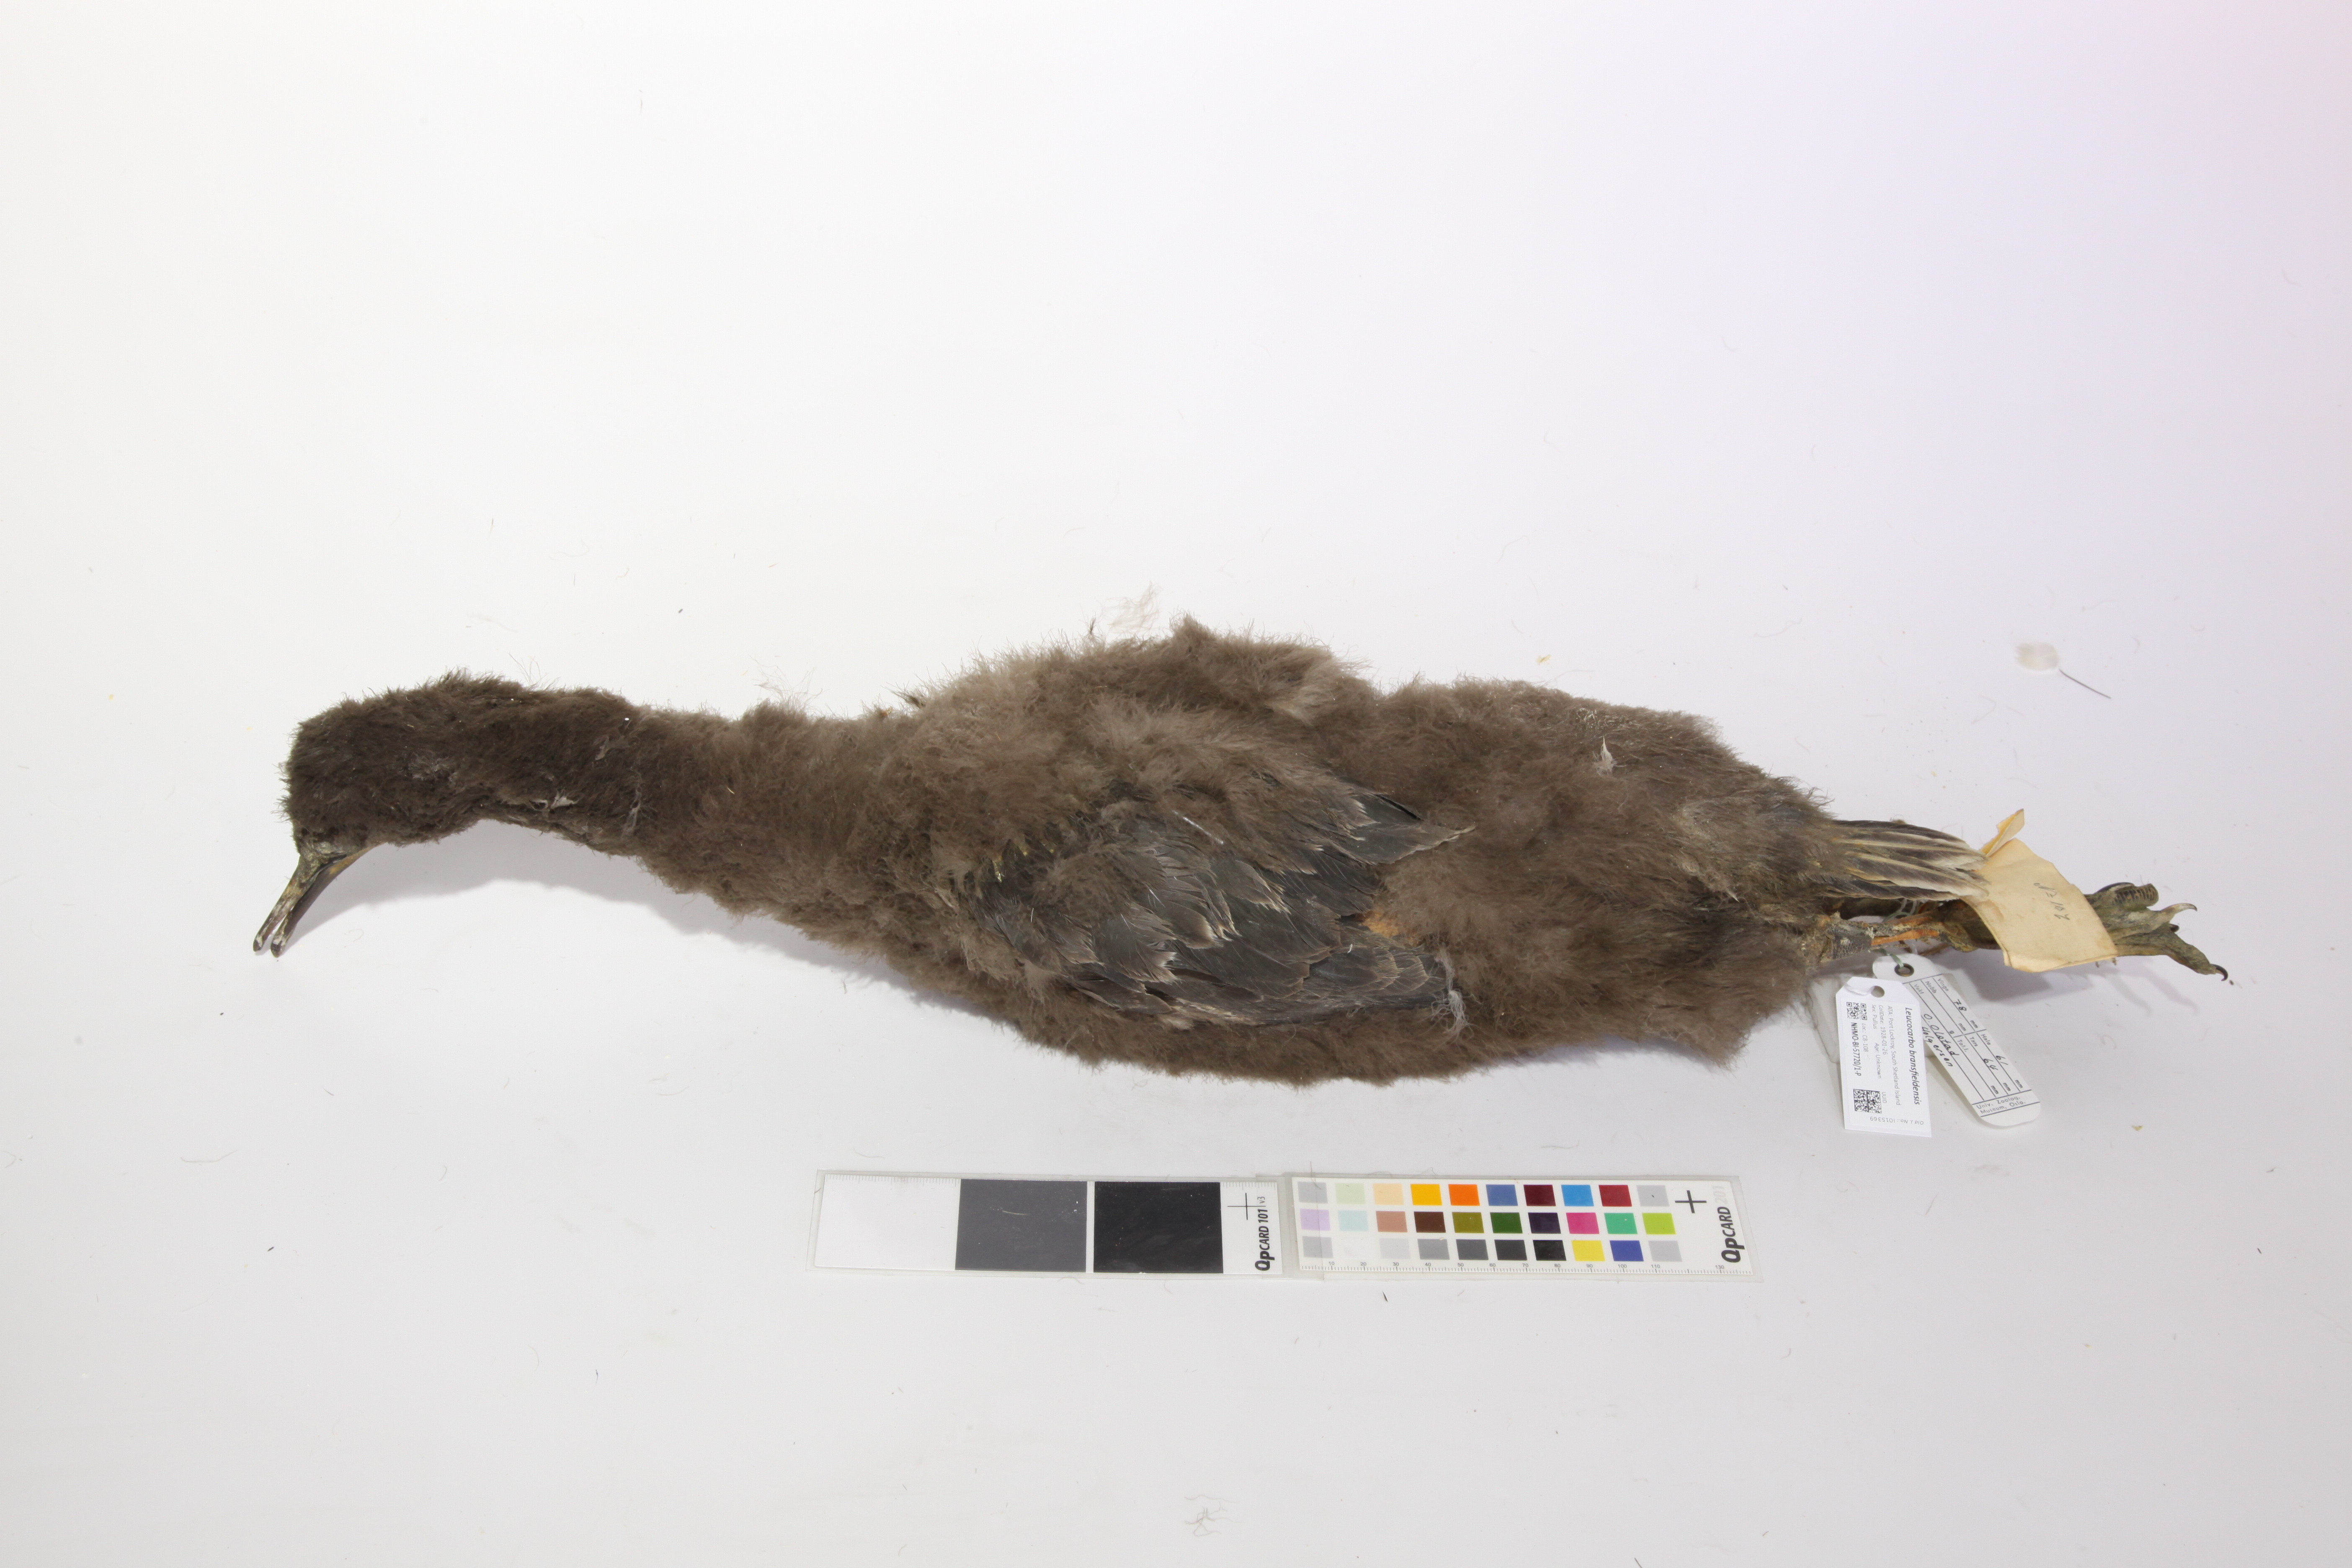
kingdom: Animalia
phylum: Chordata
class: Aves
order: Suliformes
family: Phalacrocoracidae
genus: Leucocarbo
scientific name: Leucocarbo atriceps
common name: Imperial shag
